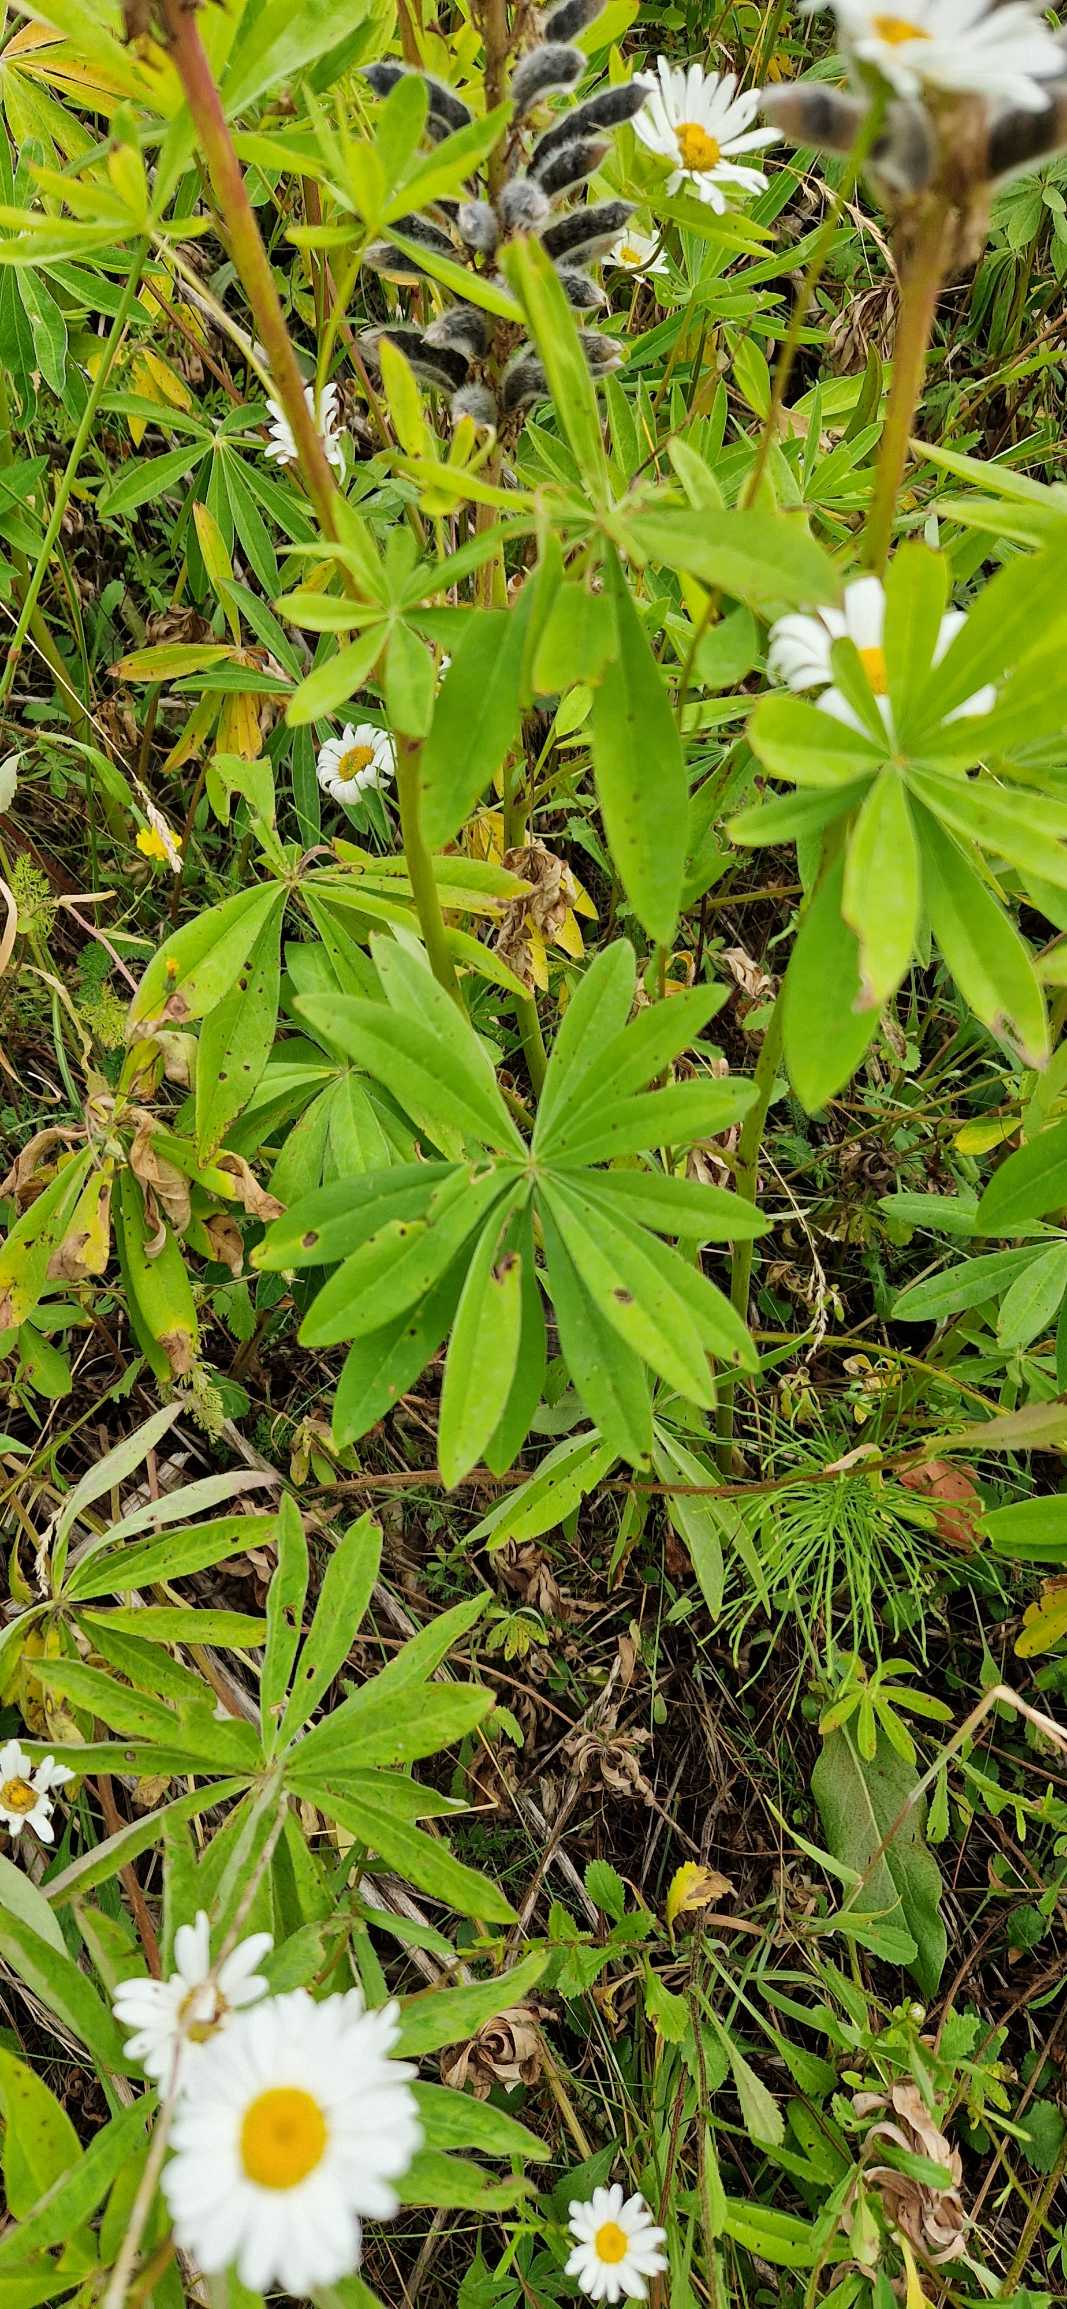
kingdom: Plantae
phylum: Tracheophyta
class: Magnoliopsida
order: Fabales
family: Fabaceae
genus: Lupinus
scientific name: Lupinus polyphyllus
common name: Mangebladet lupin
